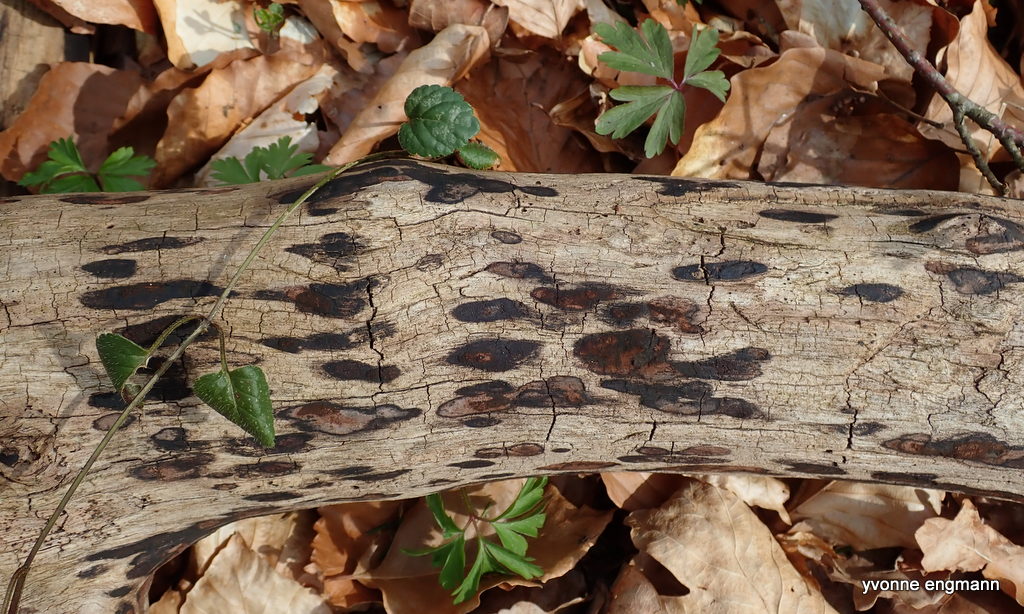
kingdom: Fungi
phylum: Ascomycota
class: Sordariomycetes
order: Xylariales
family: Hypoxylaceae
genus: Hypoxylon
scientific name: Hypoxylon petriniae
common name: nedsænket kulbær
